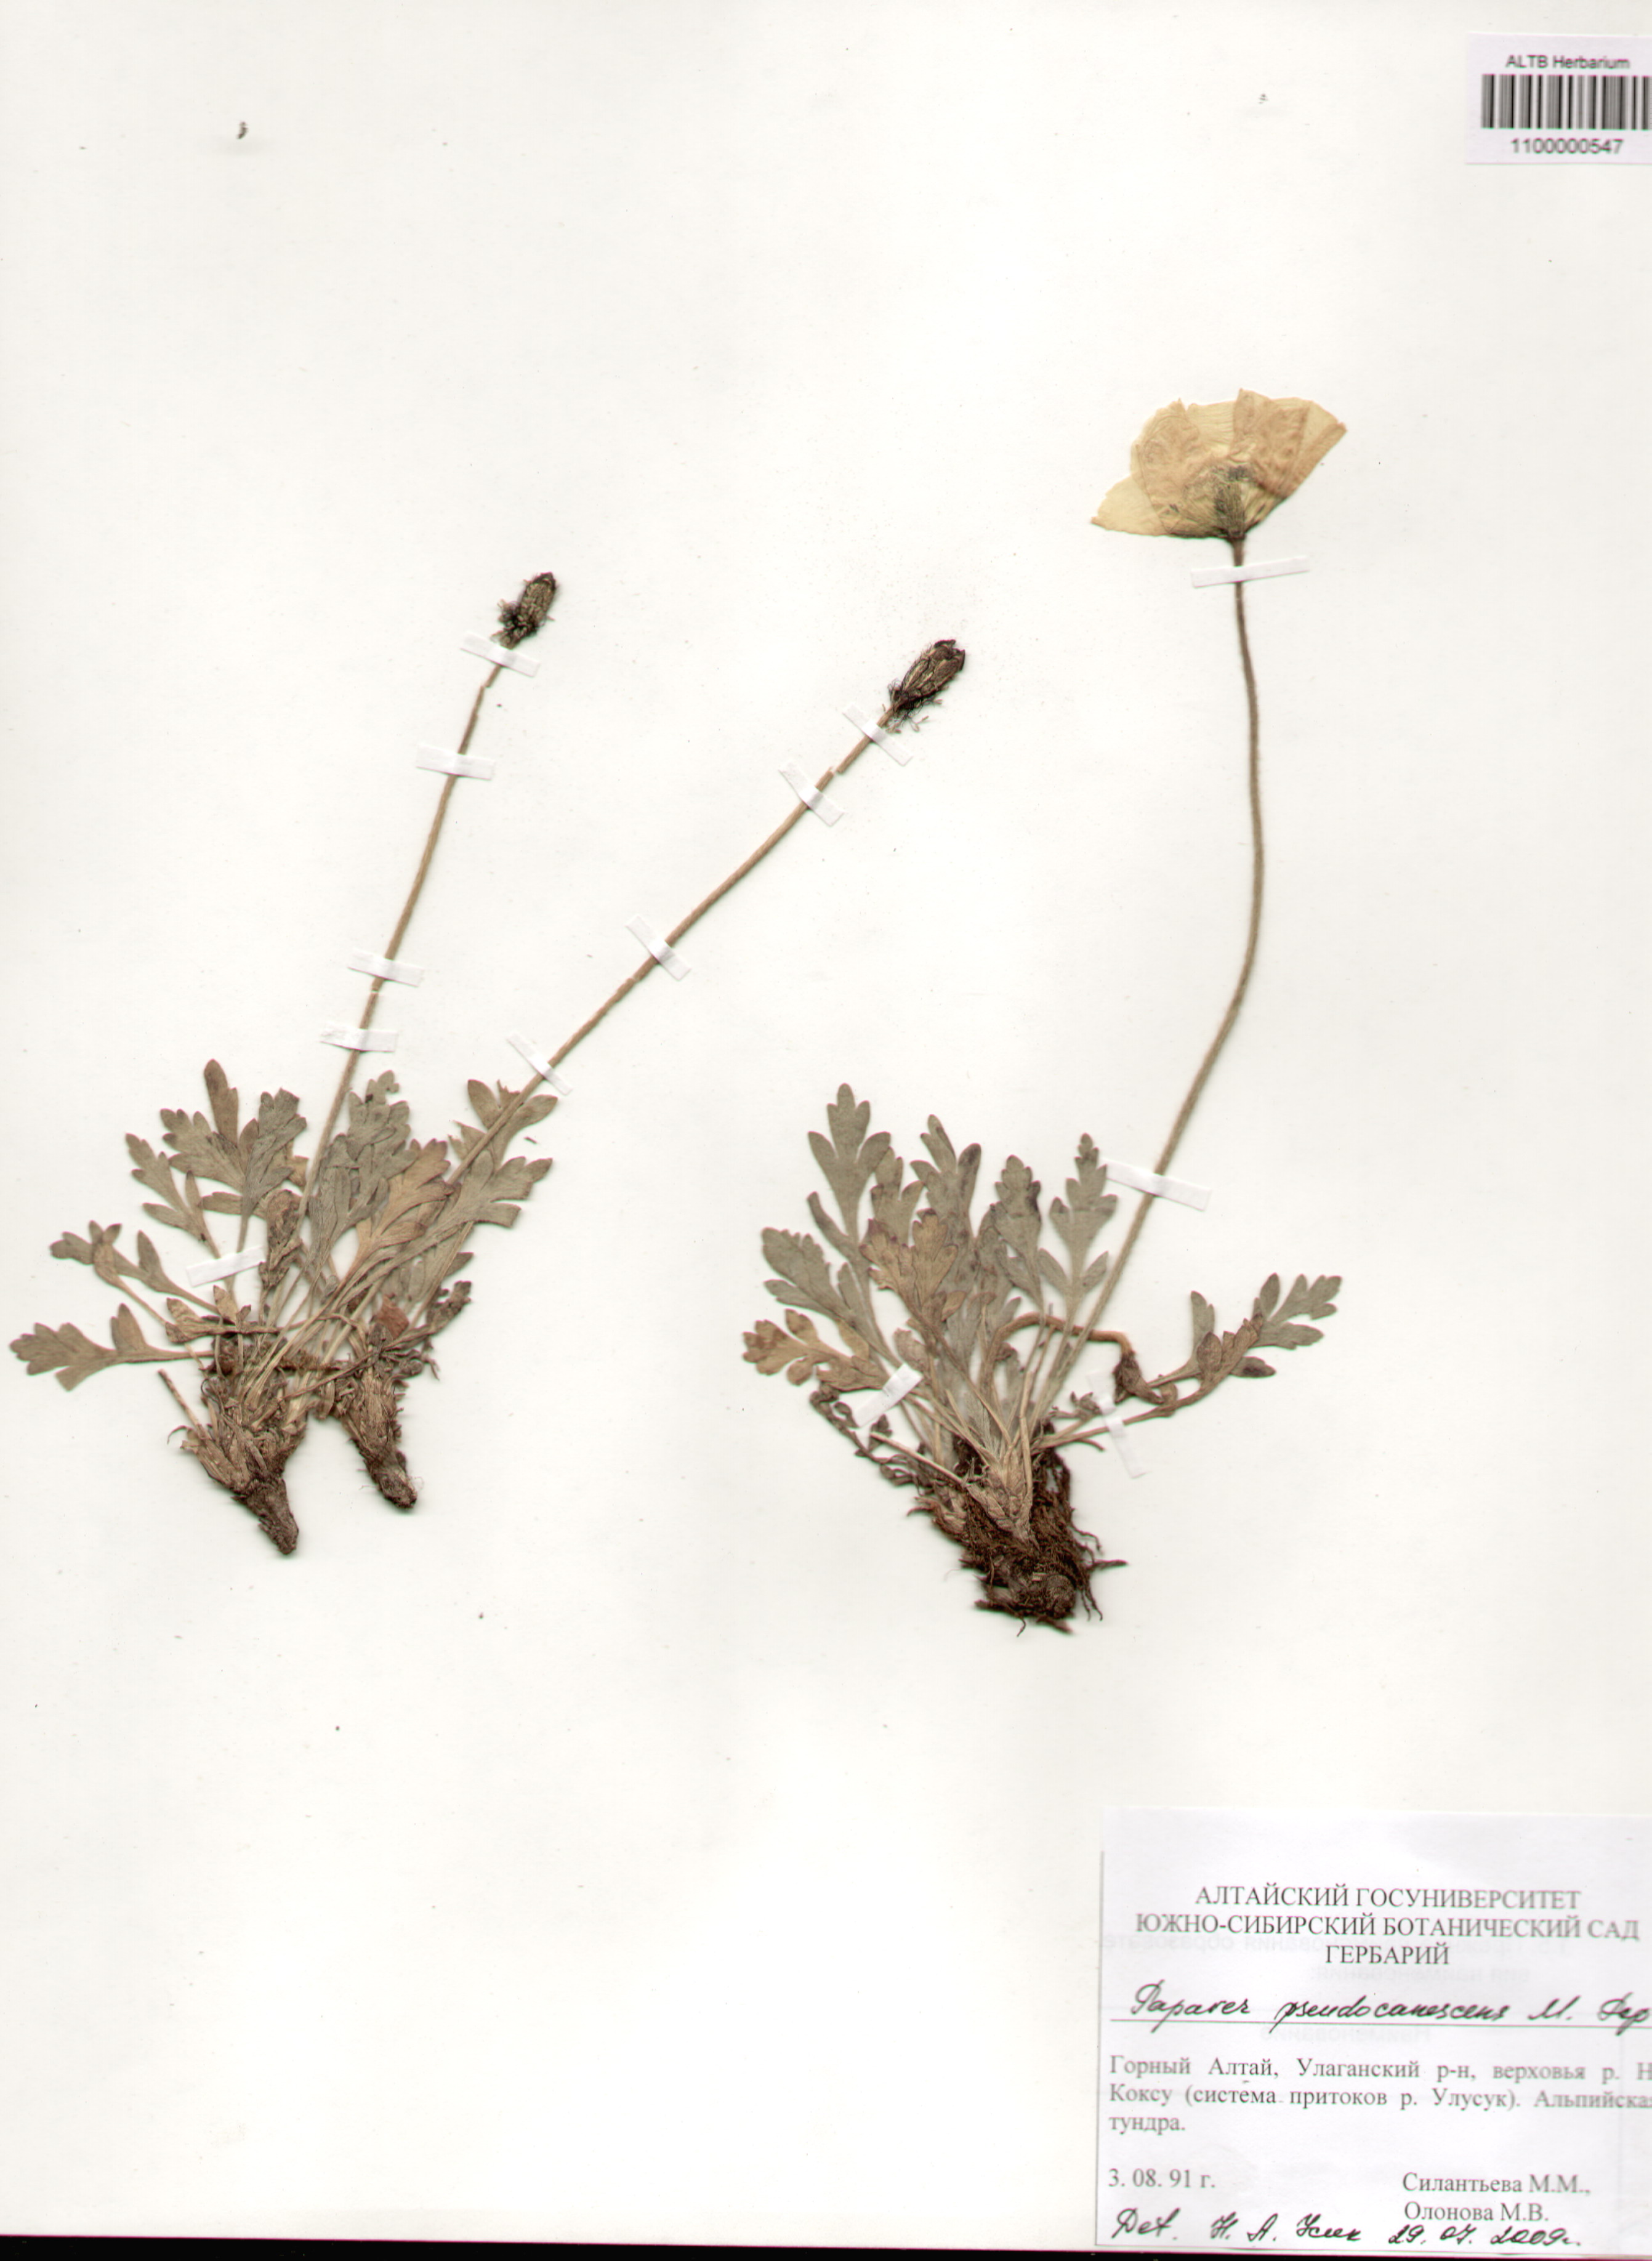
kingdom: Plantae
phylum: Tracheophyta
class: Magnoliopsida
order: Ranunculales
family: Papaveraceae
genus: Papaver
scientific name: Papaver canescens
